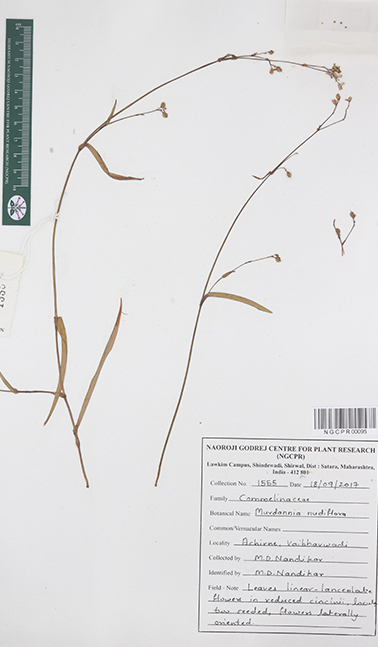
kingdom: Plantae
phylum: Tracheophyta
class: Liliopsida
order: Commelinales
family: Commelinaceae
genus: Murdannia
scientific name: Murdannia nudiflora
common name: Nakedstem dewflower
